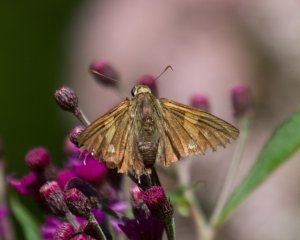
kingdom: Animalia
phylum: Arthropoda
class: Insecta
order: Lepidoptera
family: Hesperiidae
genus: Epargyreus
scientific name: Epargyreus clarus
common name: Silver-spotted Skipper
